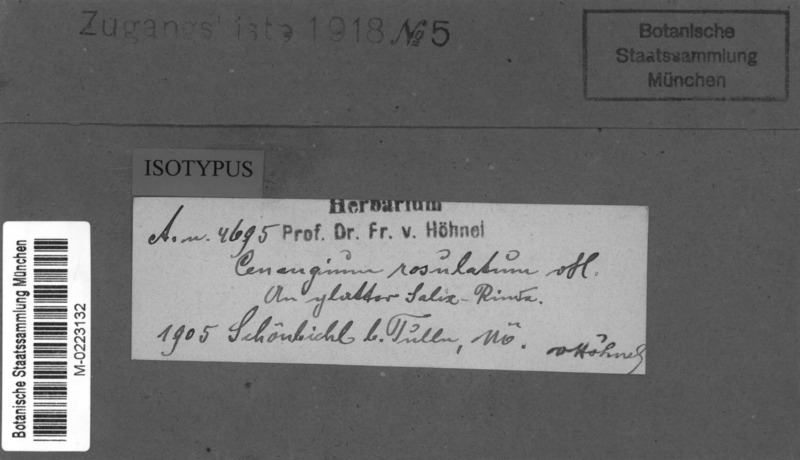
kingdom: Fungi
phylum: Ascomycota
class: Leotiomycetes
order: Helotiales
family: Cenangiaceae
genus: Cenangium
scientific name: Cenangium rosulatum
